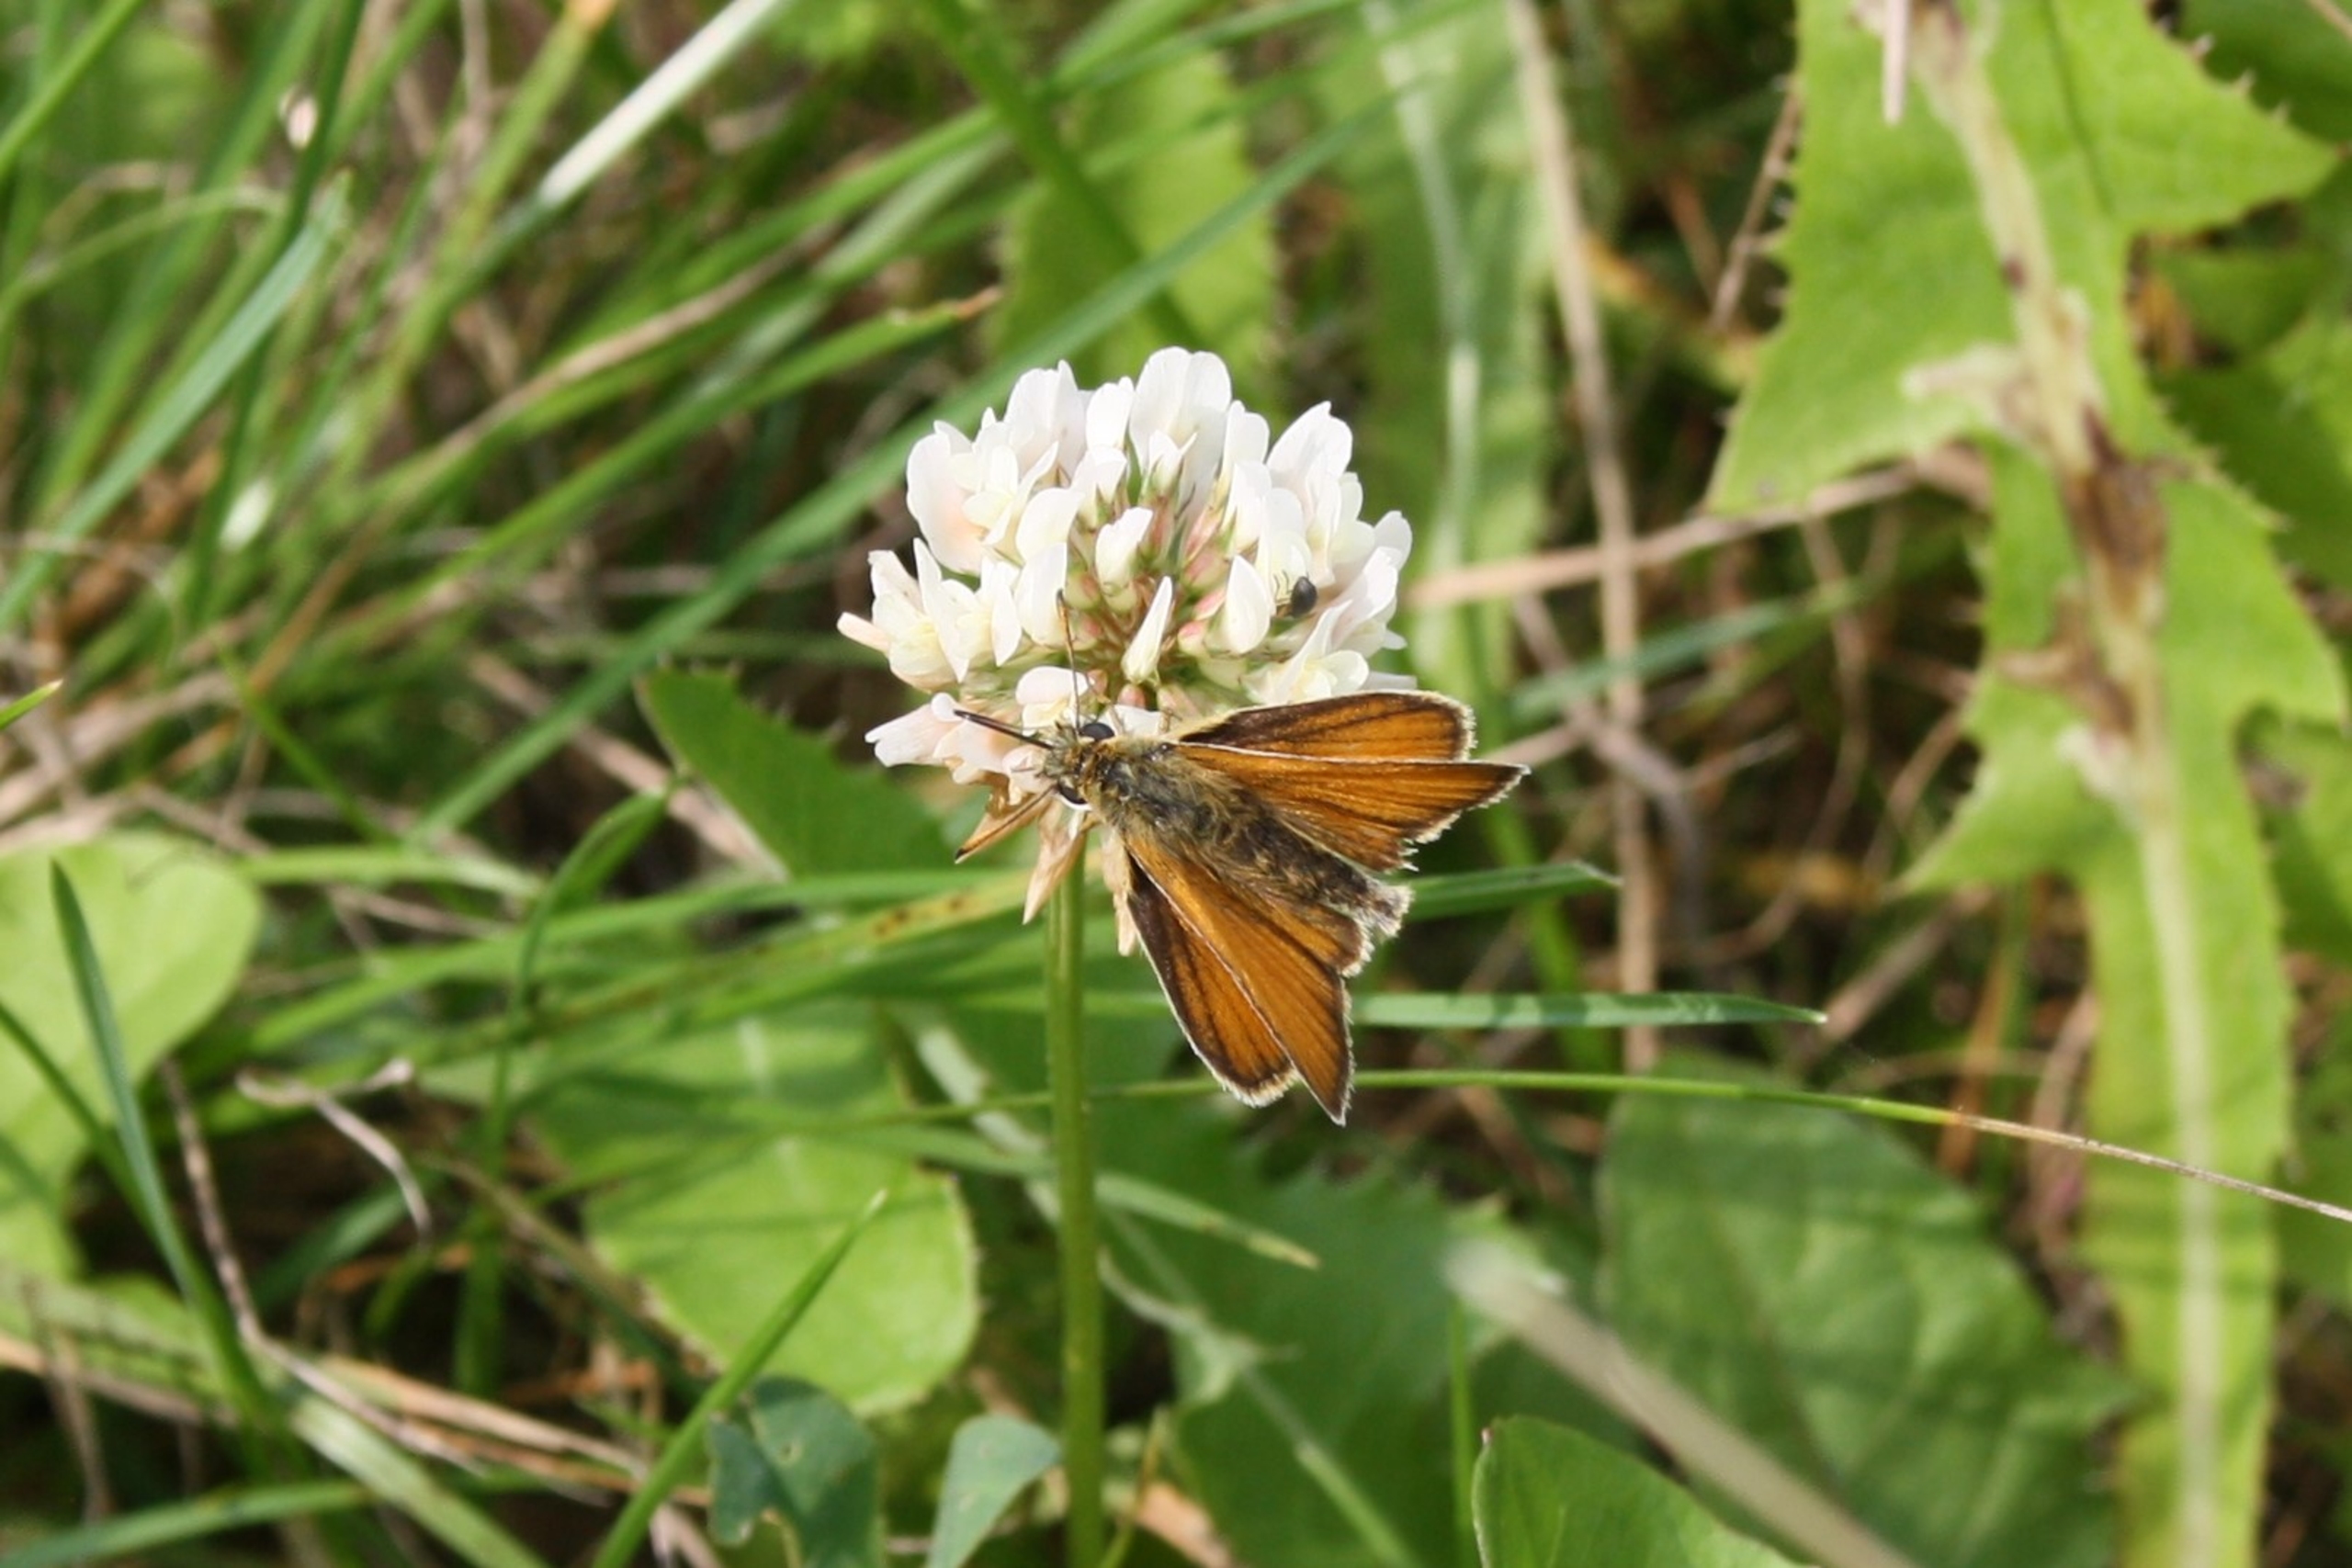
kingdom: Animalia
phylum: Arthropoda
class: Insecta
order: Lepidoptera
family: Hesperiidae
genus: Thymelicus
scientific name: Thymelicus lineola
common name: Stregbredpande
